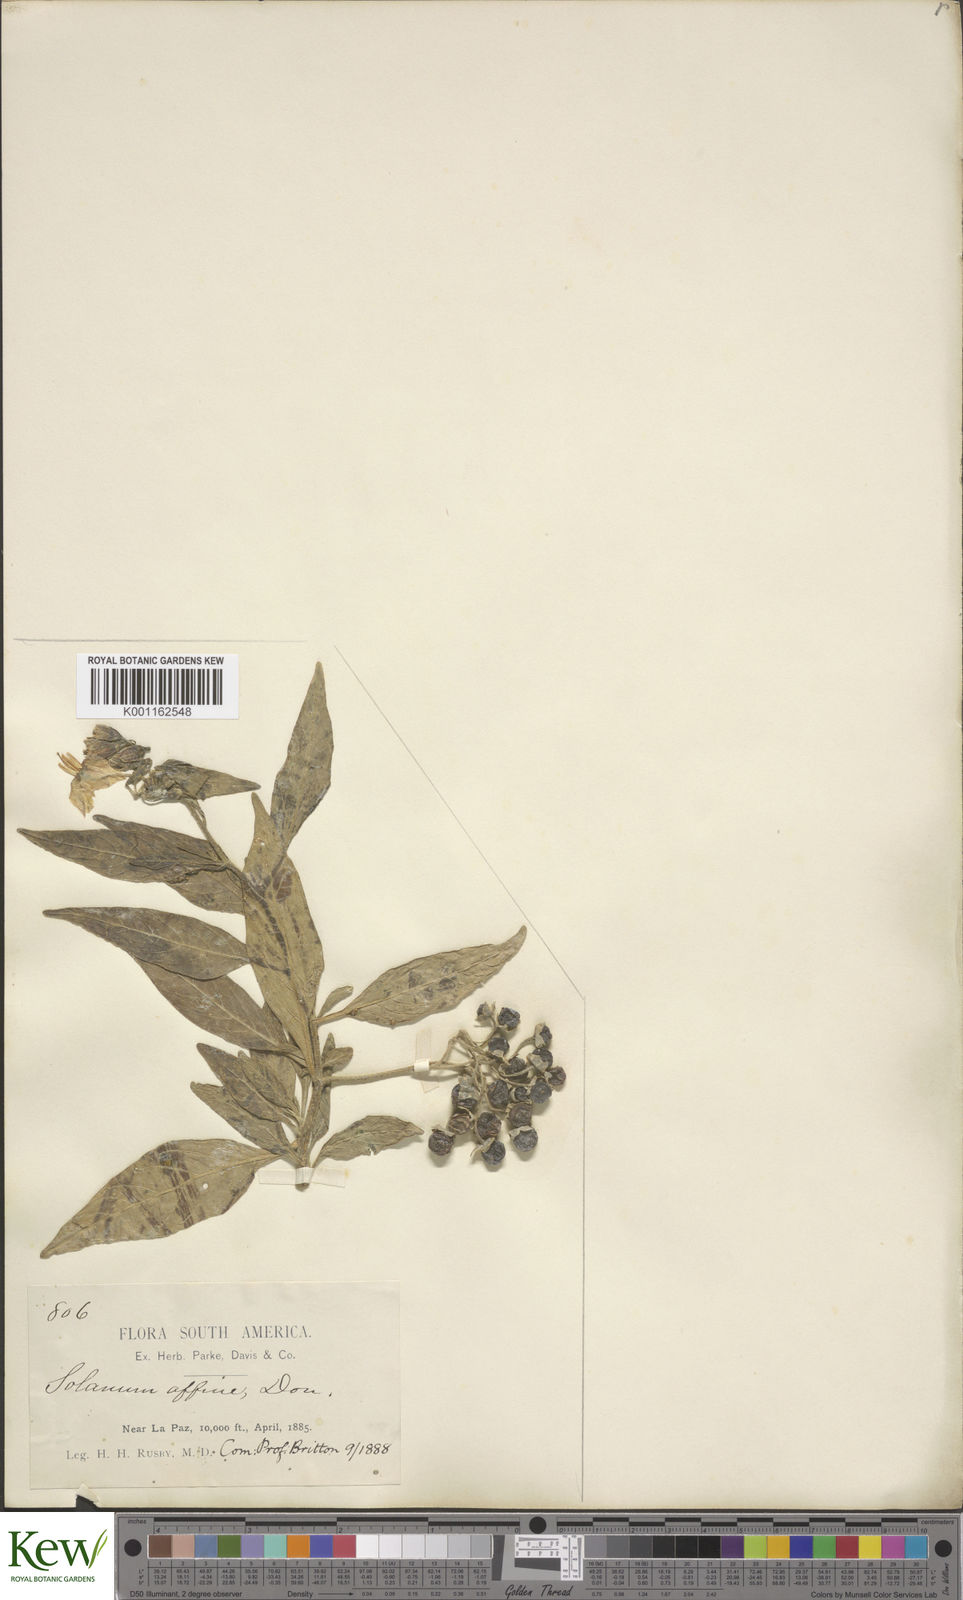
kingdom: Plantae
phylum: Tracheophyta
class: Magnoliopsida
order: Solanales
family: Solanaceae
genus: Solanum
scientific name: Solanum affine
